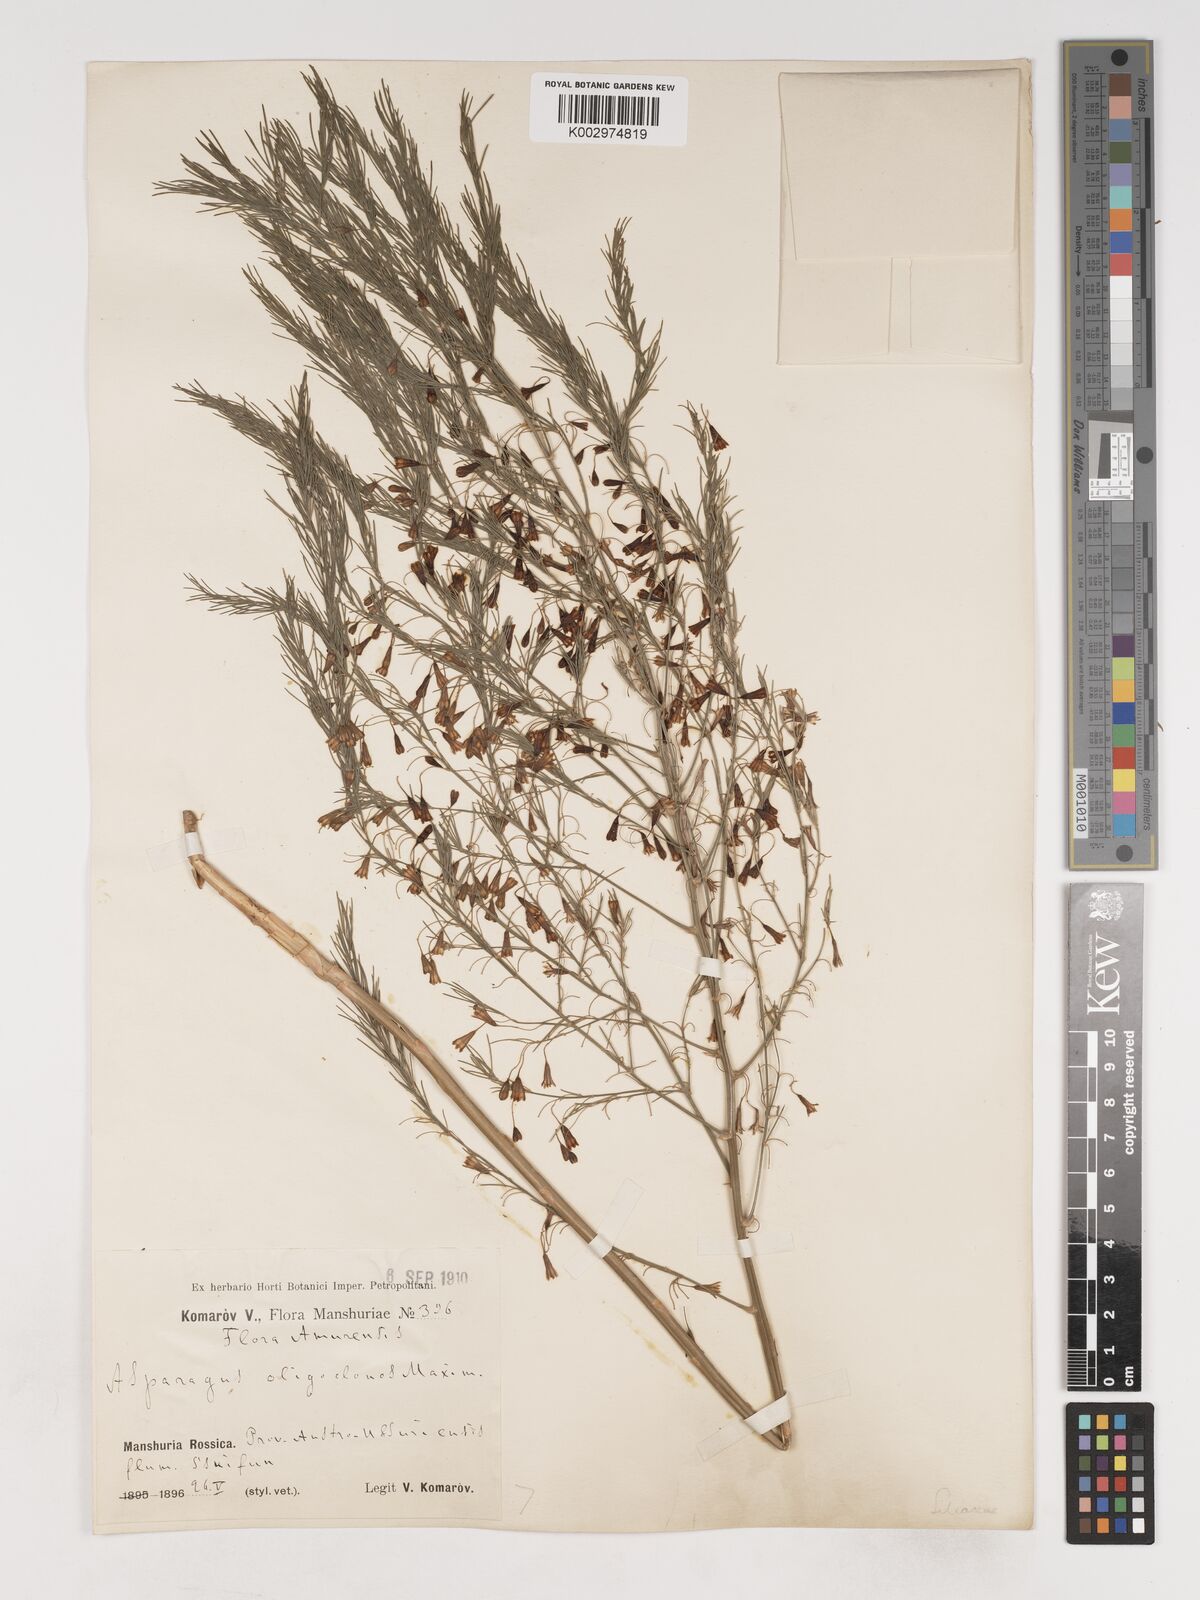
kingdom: Plantae
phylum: Tracheophyta
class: Liliopsida
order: Asparagales
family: Asparagaceae
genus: Asparagus
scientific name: Asparagus oligoclonos
